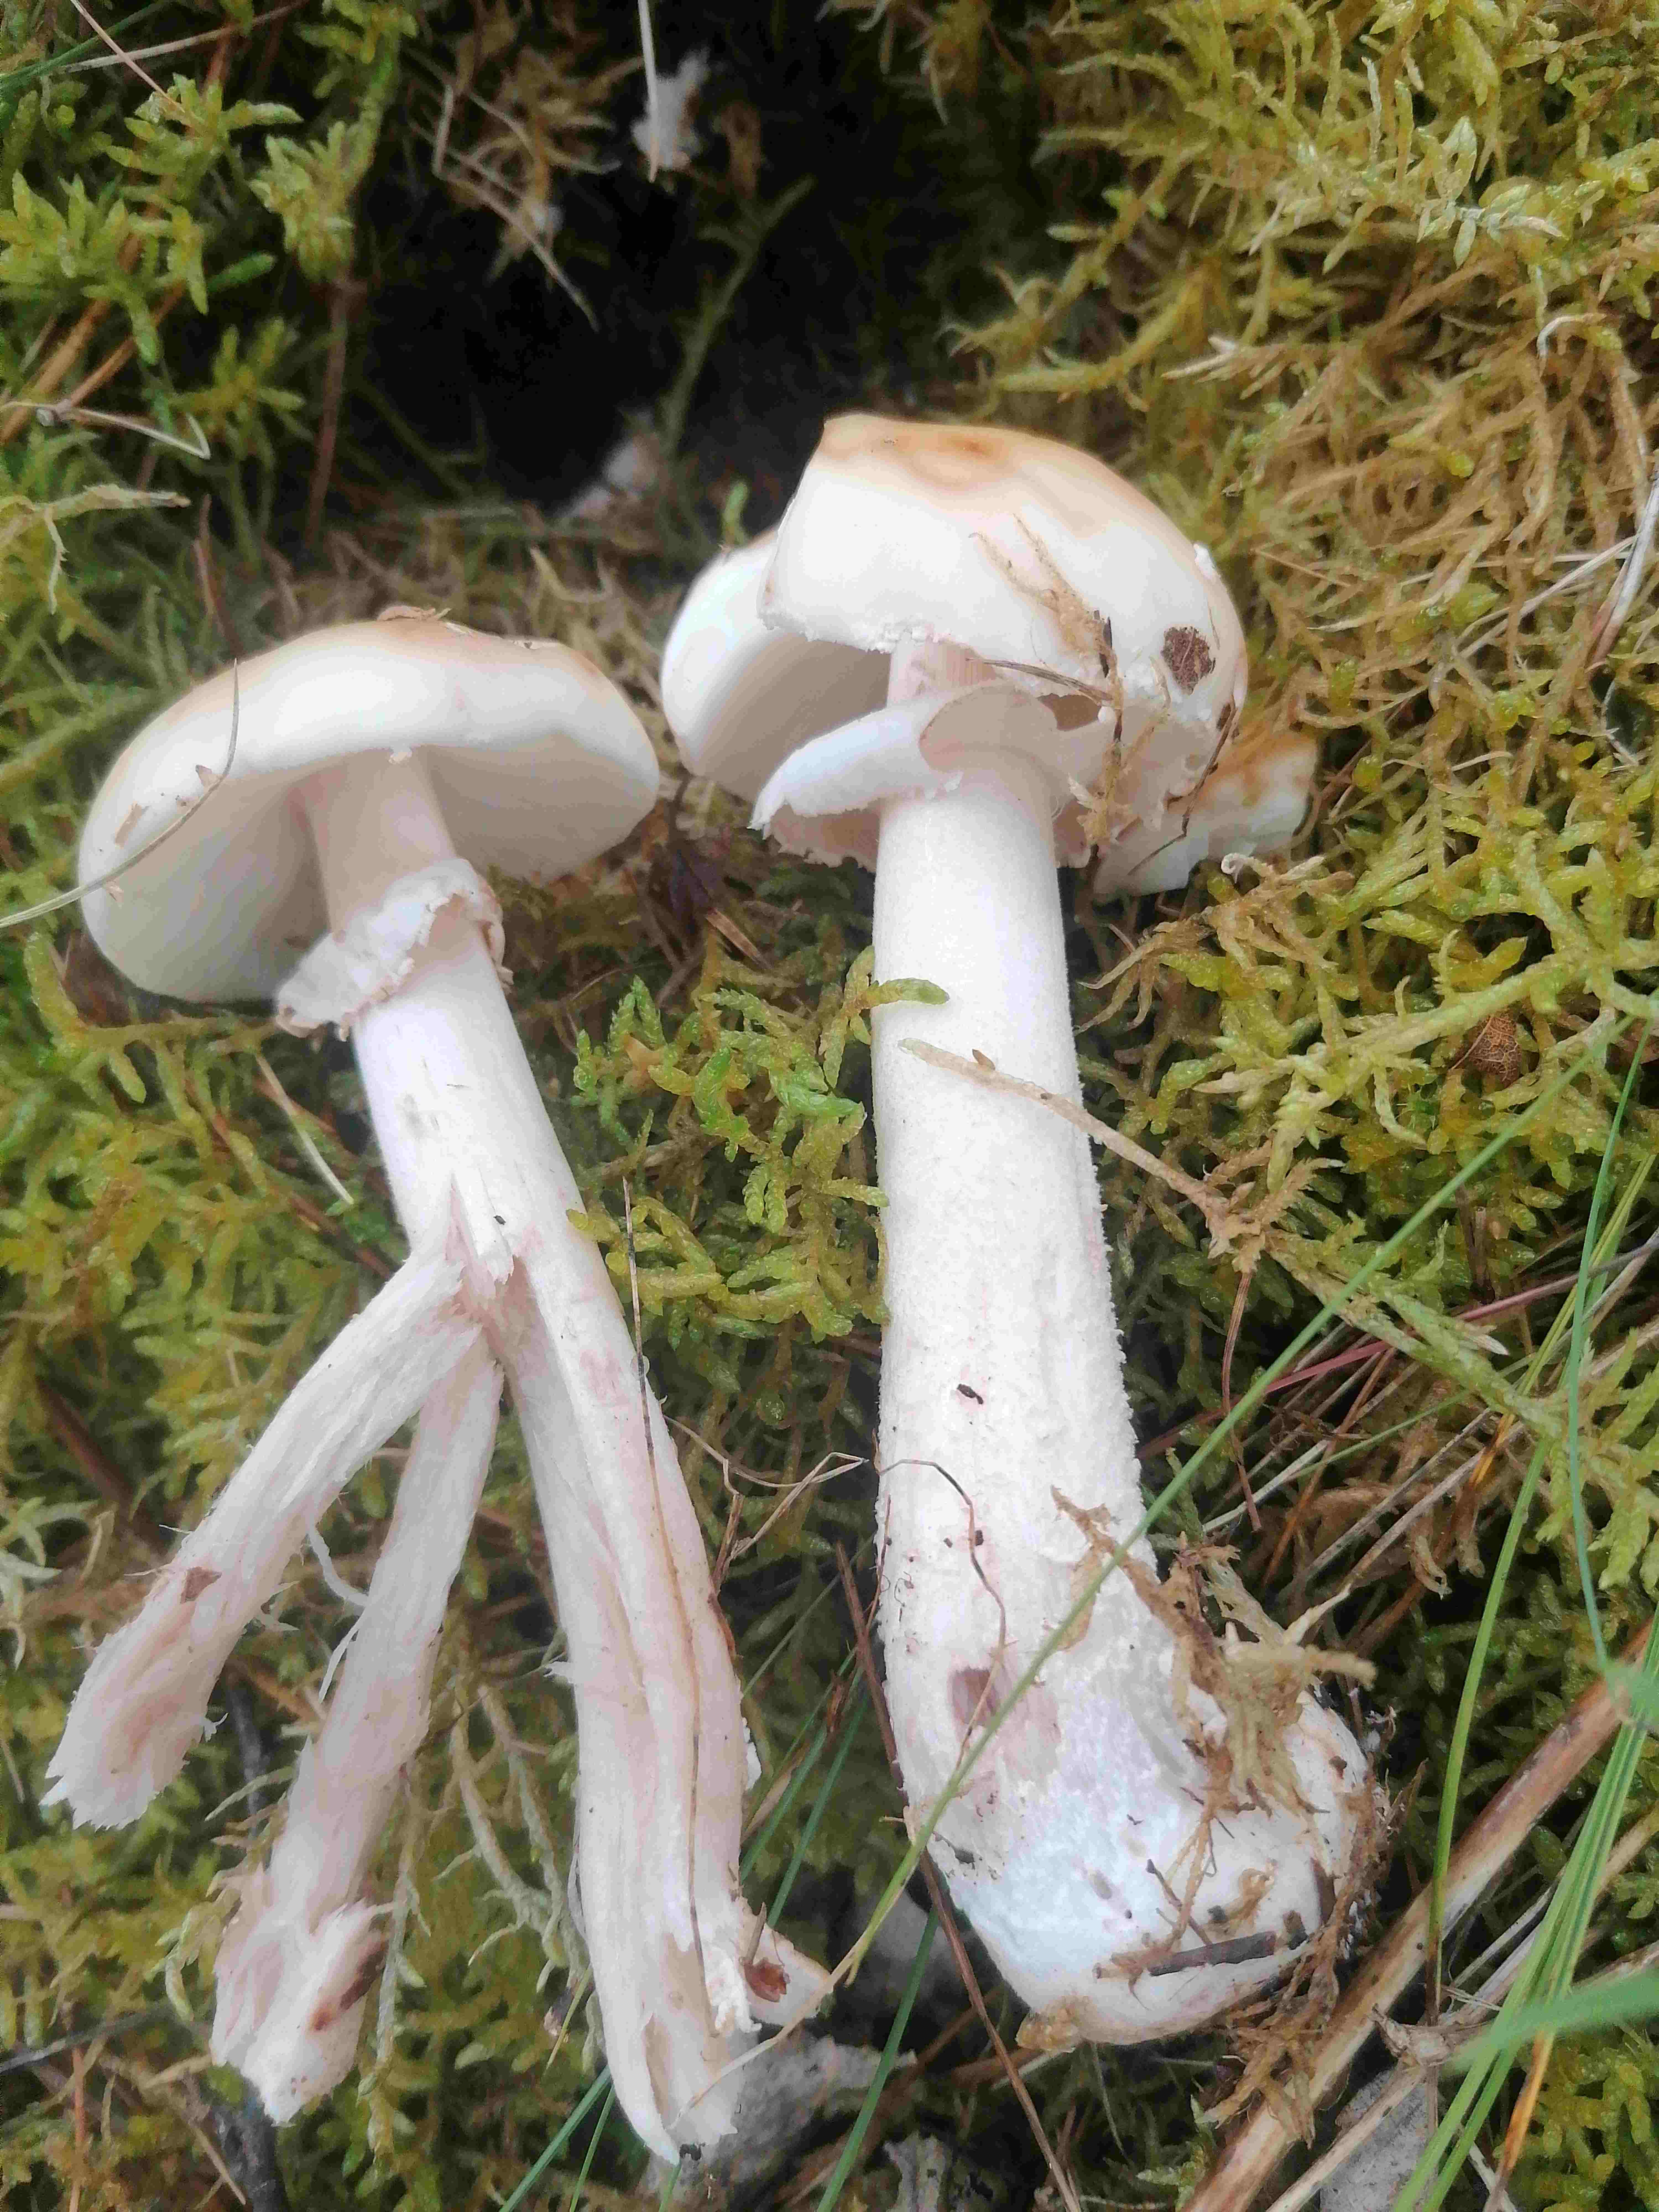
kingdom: Fungi
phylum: Basidiomycota
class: Agaricomycetes
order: Agaricales
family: Amanitaceae
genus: Amanita
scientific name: Amanita rubescens
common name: rødmende fluesvamp
